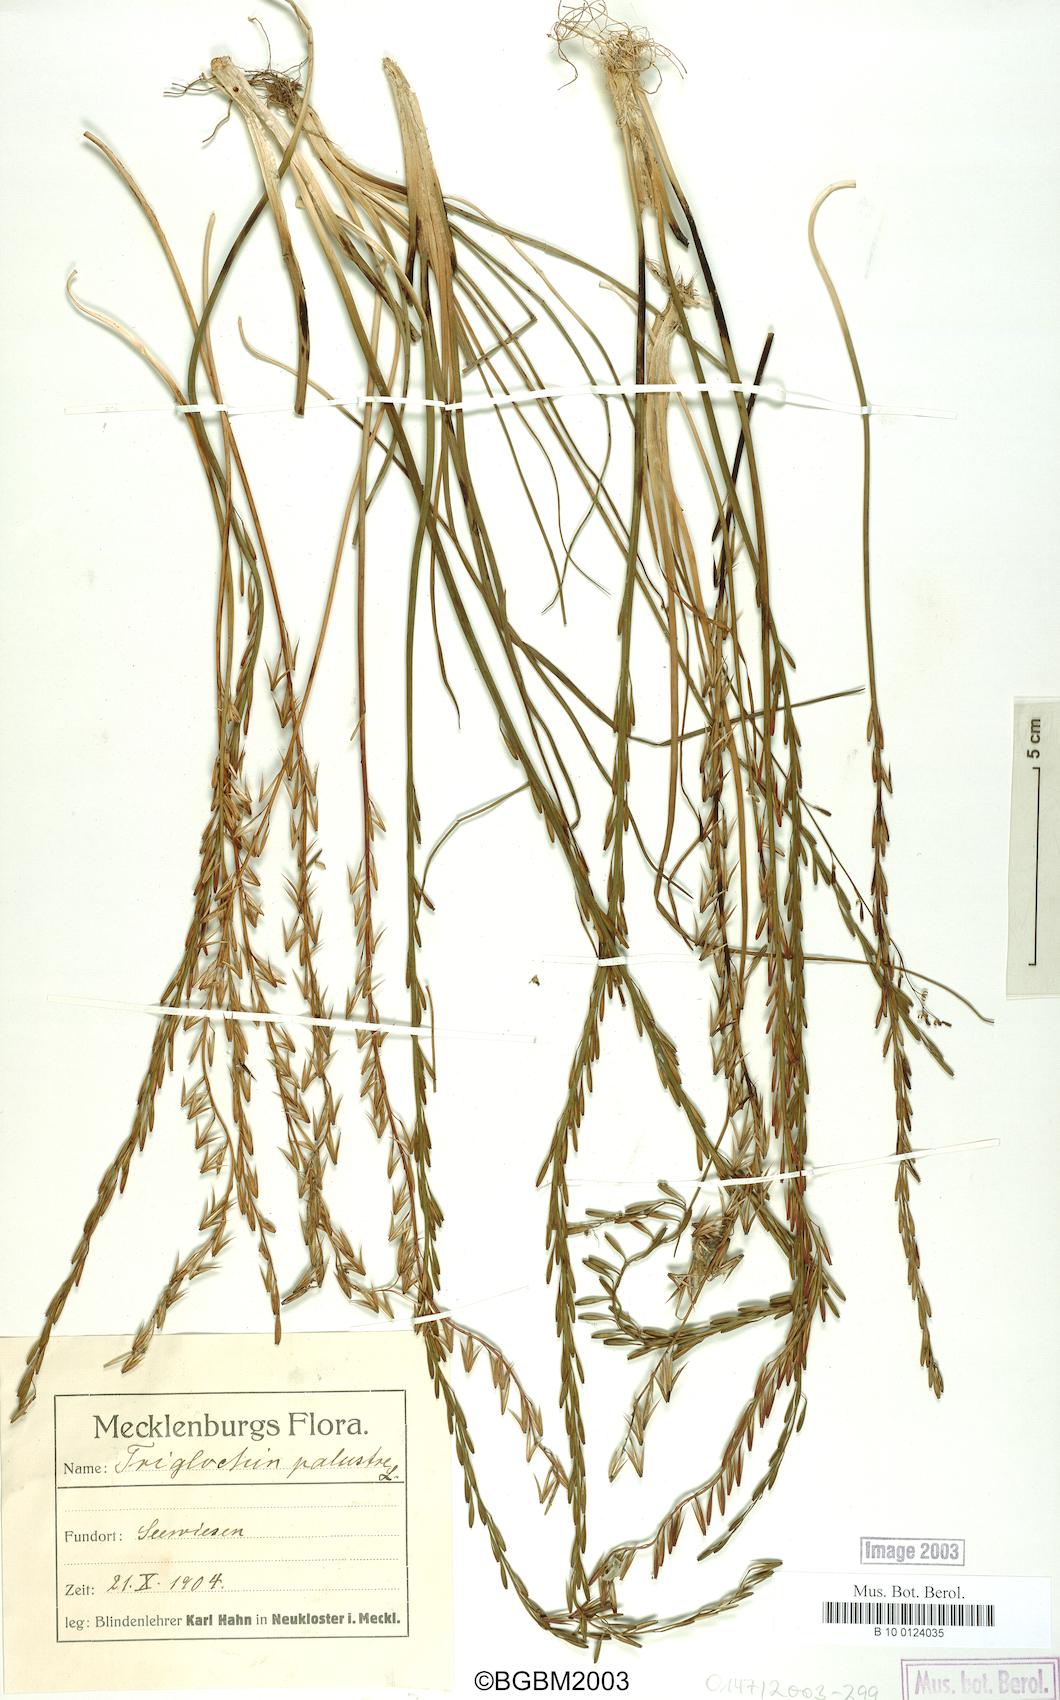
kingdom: Plantae
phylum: Tracheophyta
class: Liliopsida
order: Alismatales
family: Juncaginaceae
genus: Triglochin
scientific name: Triglochin palustris
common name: Marsh arrowgrass
